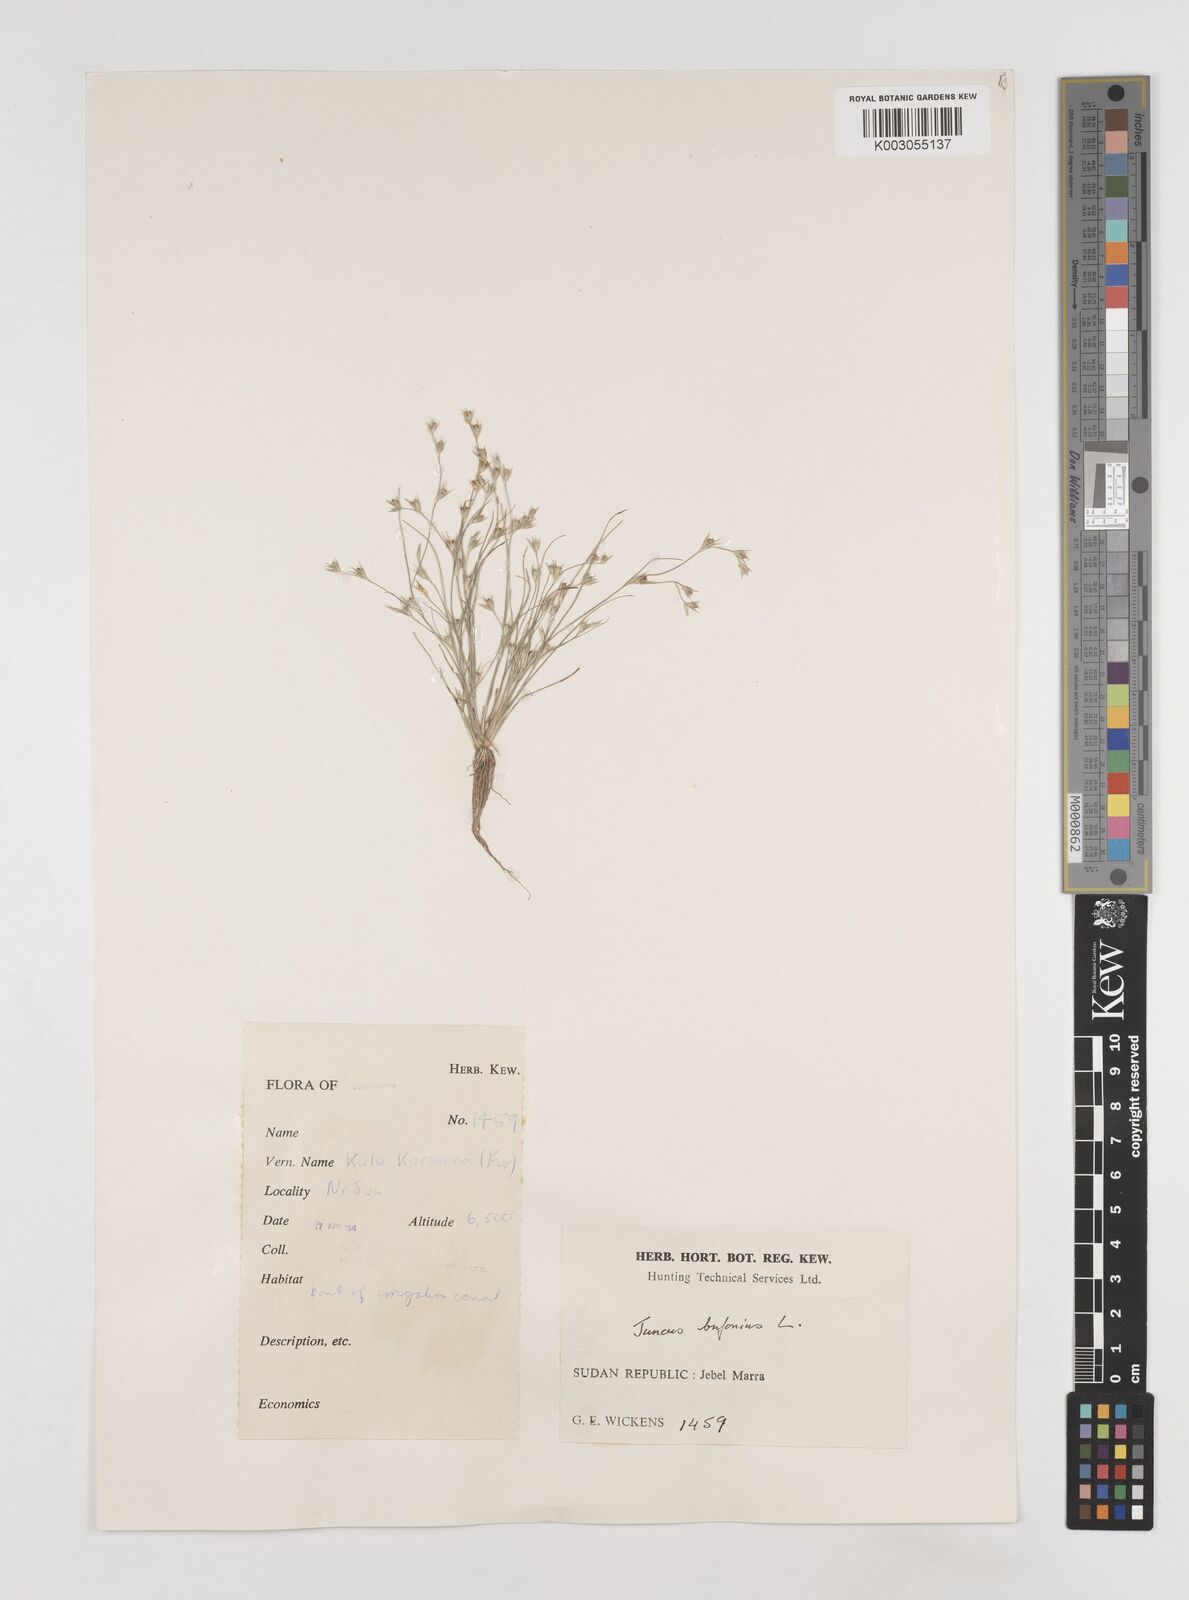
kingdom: Plantae
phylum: Tracheophyta
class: Liliopsida
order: Poales
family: Juncaceae
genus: Juncus
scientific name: Juncus bufonius
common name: Toad rush
